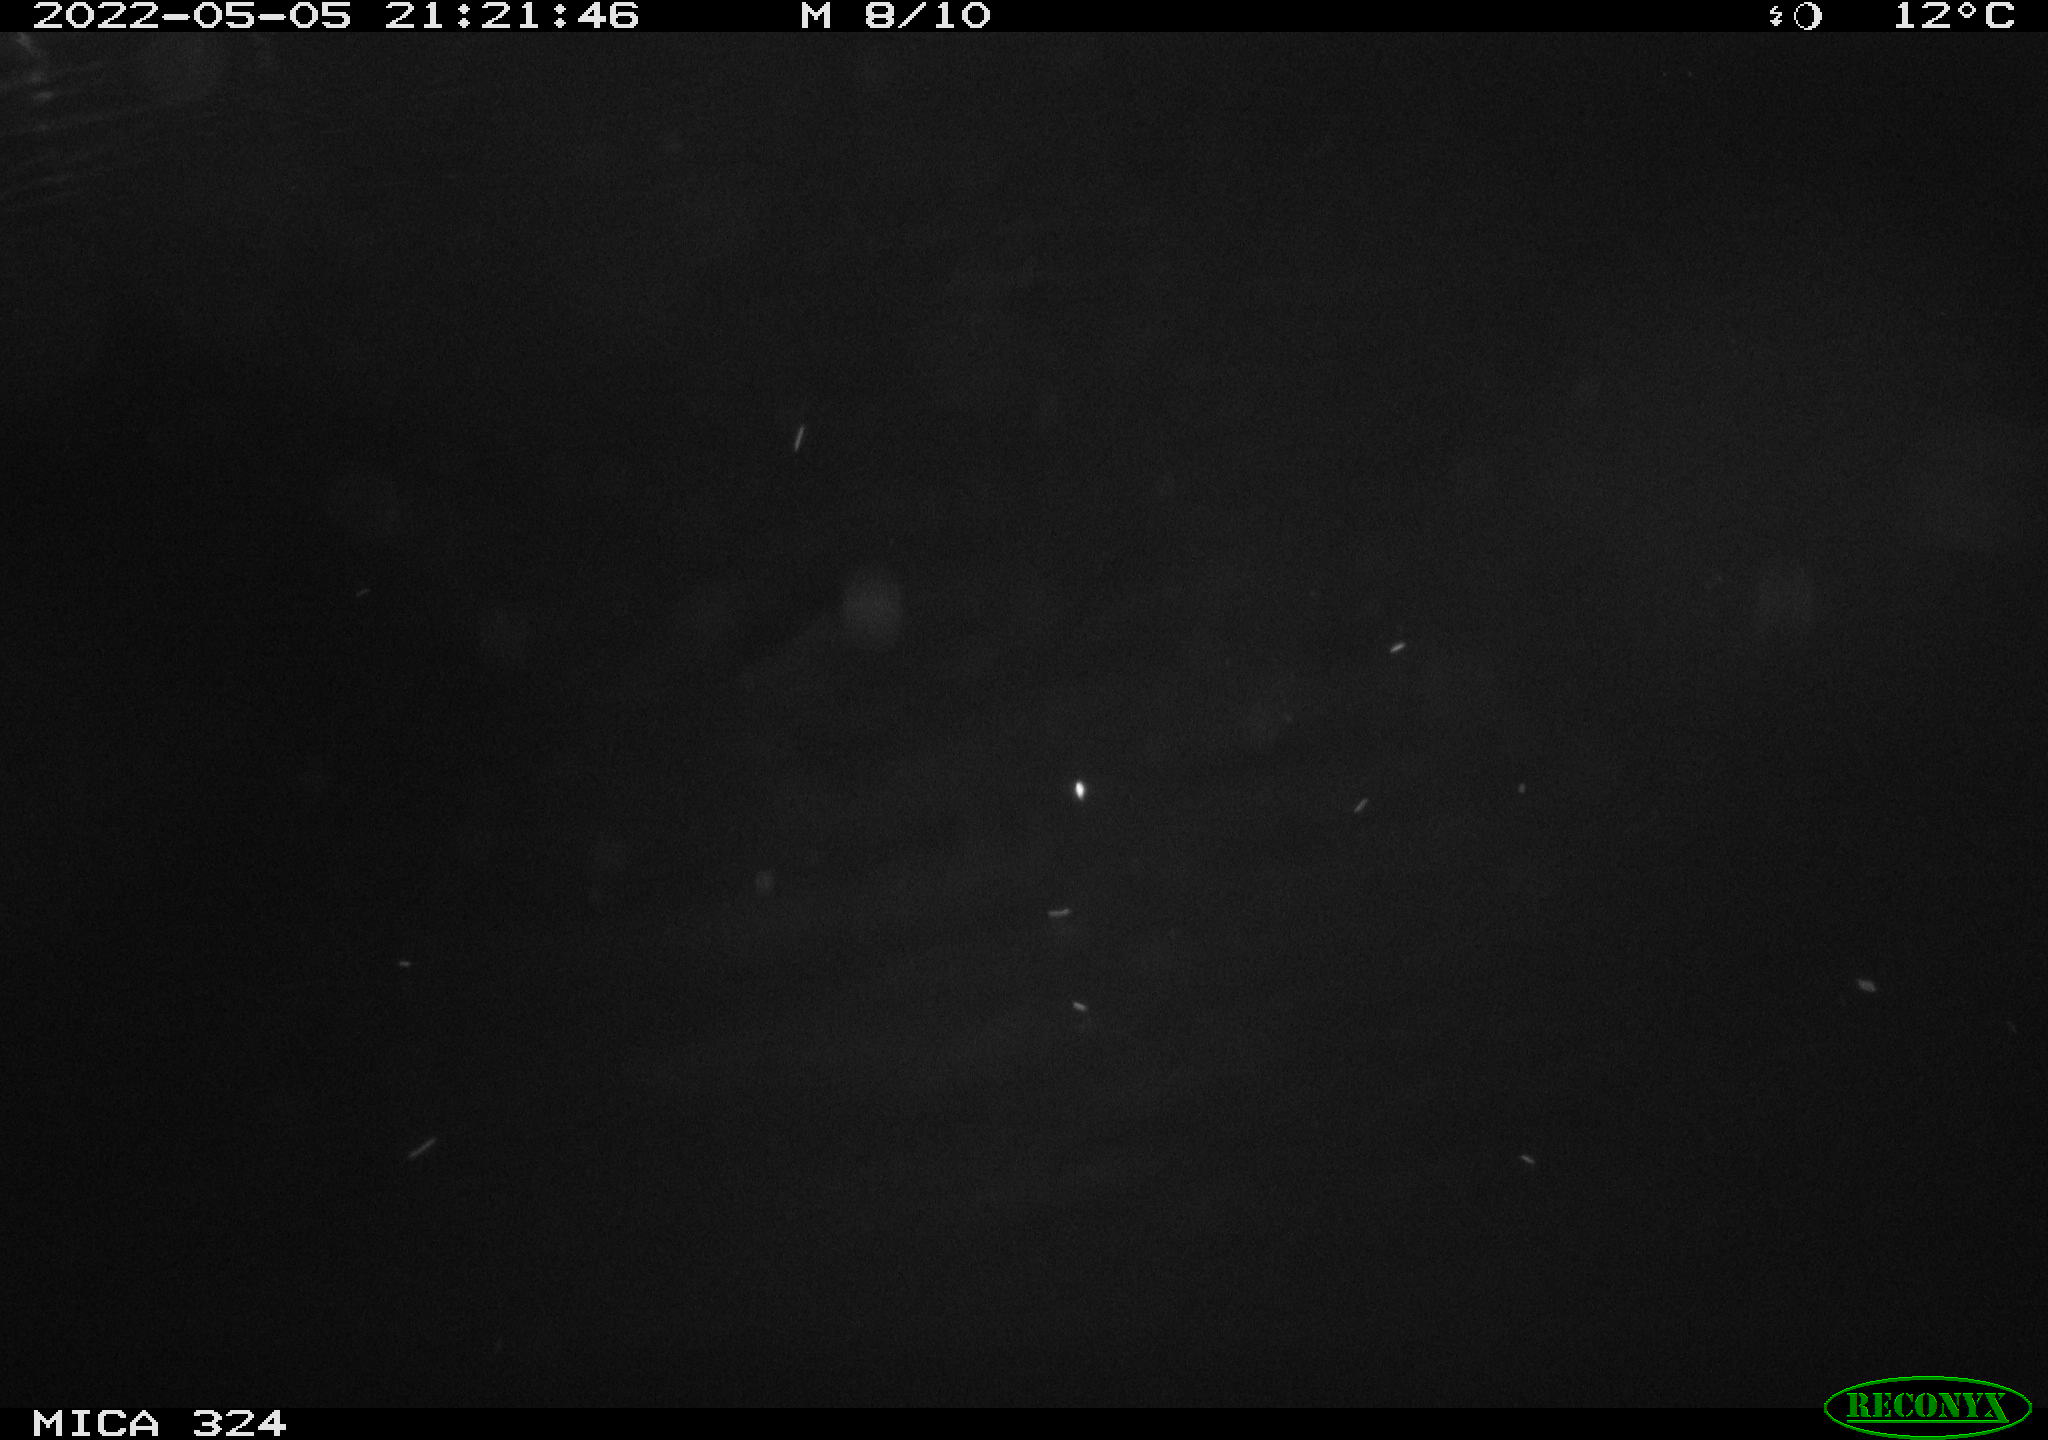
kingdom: Animalia
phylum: Chordata
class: Mammalia
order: Rodentia
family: Cricetidae
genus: Ondatra
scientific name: Ondatra zibethicus
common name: Muskrat
